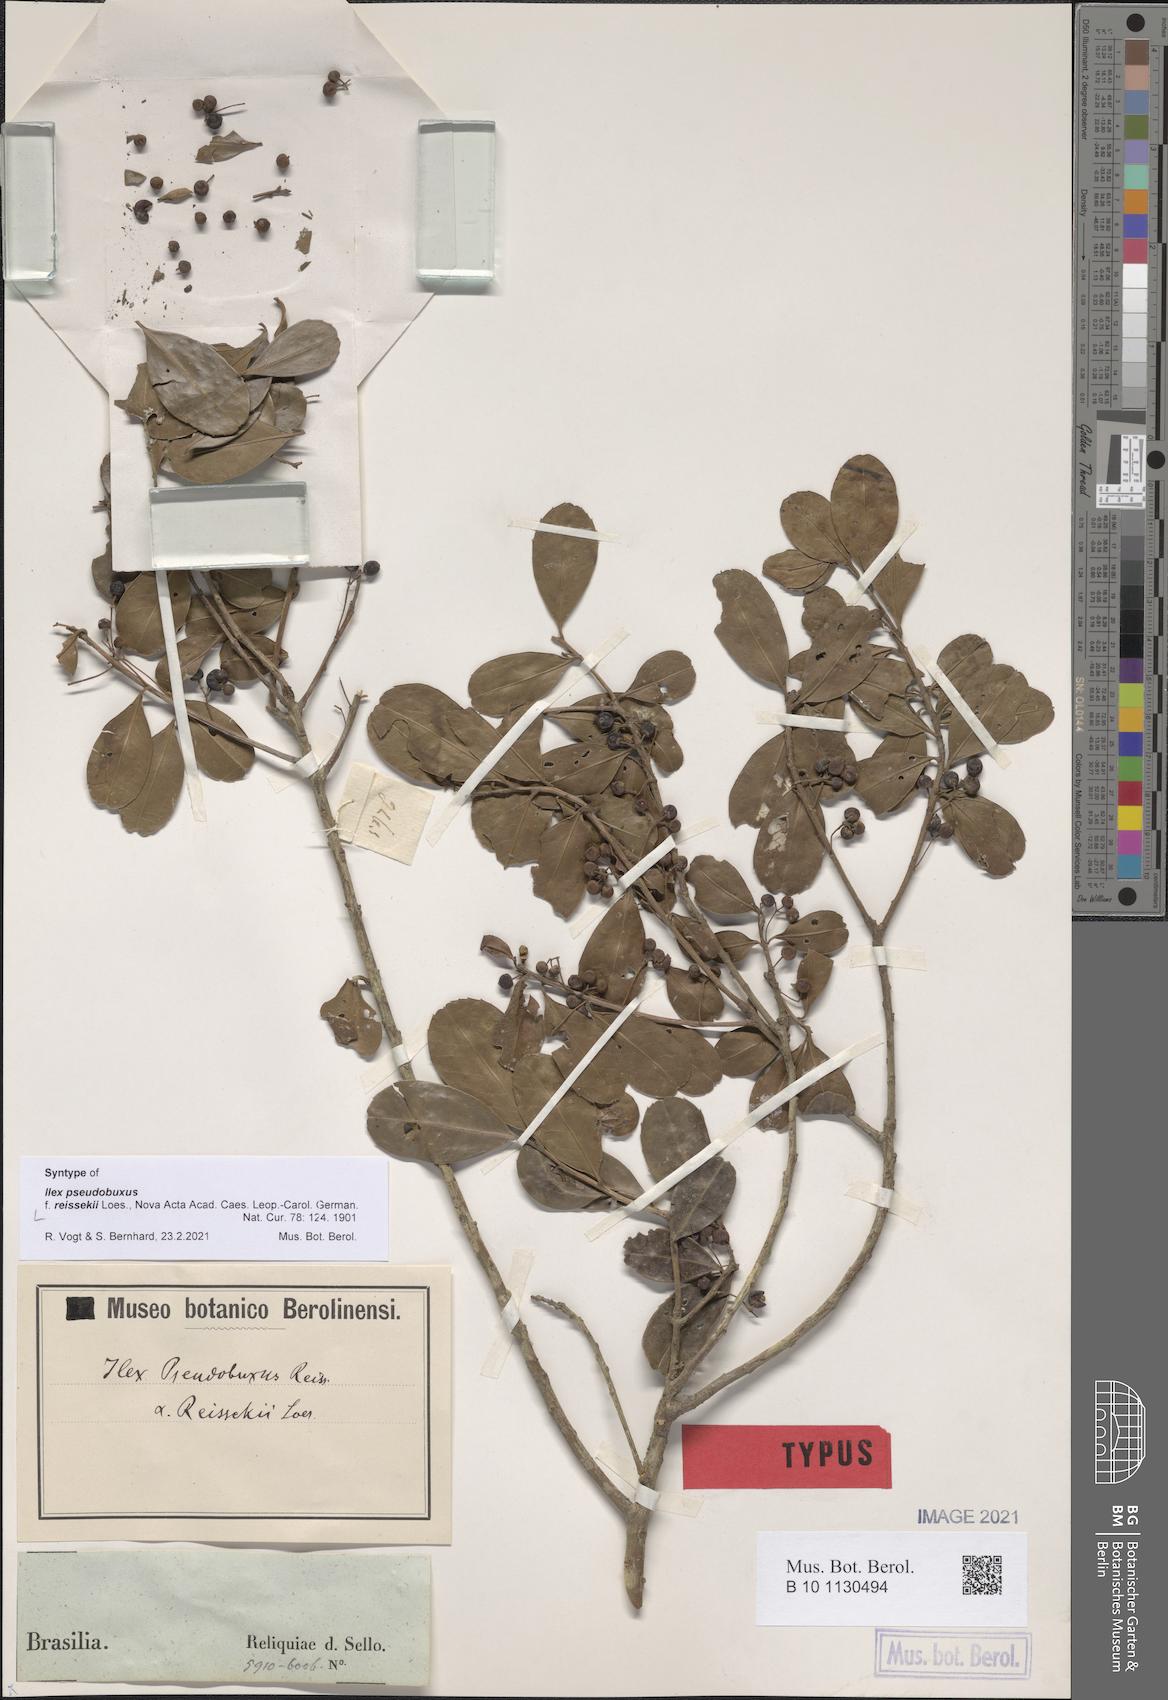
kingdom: Plantae
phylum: Tracheophyta
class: Magnoliopsida
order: Aquifoliales
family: Aquifoliaceae
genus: Ilex
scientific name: Ilex pseudobuxus
